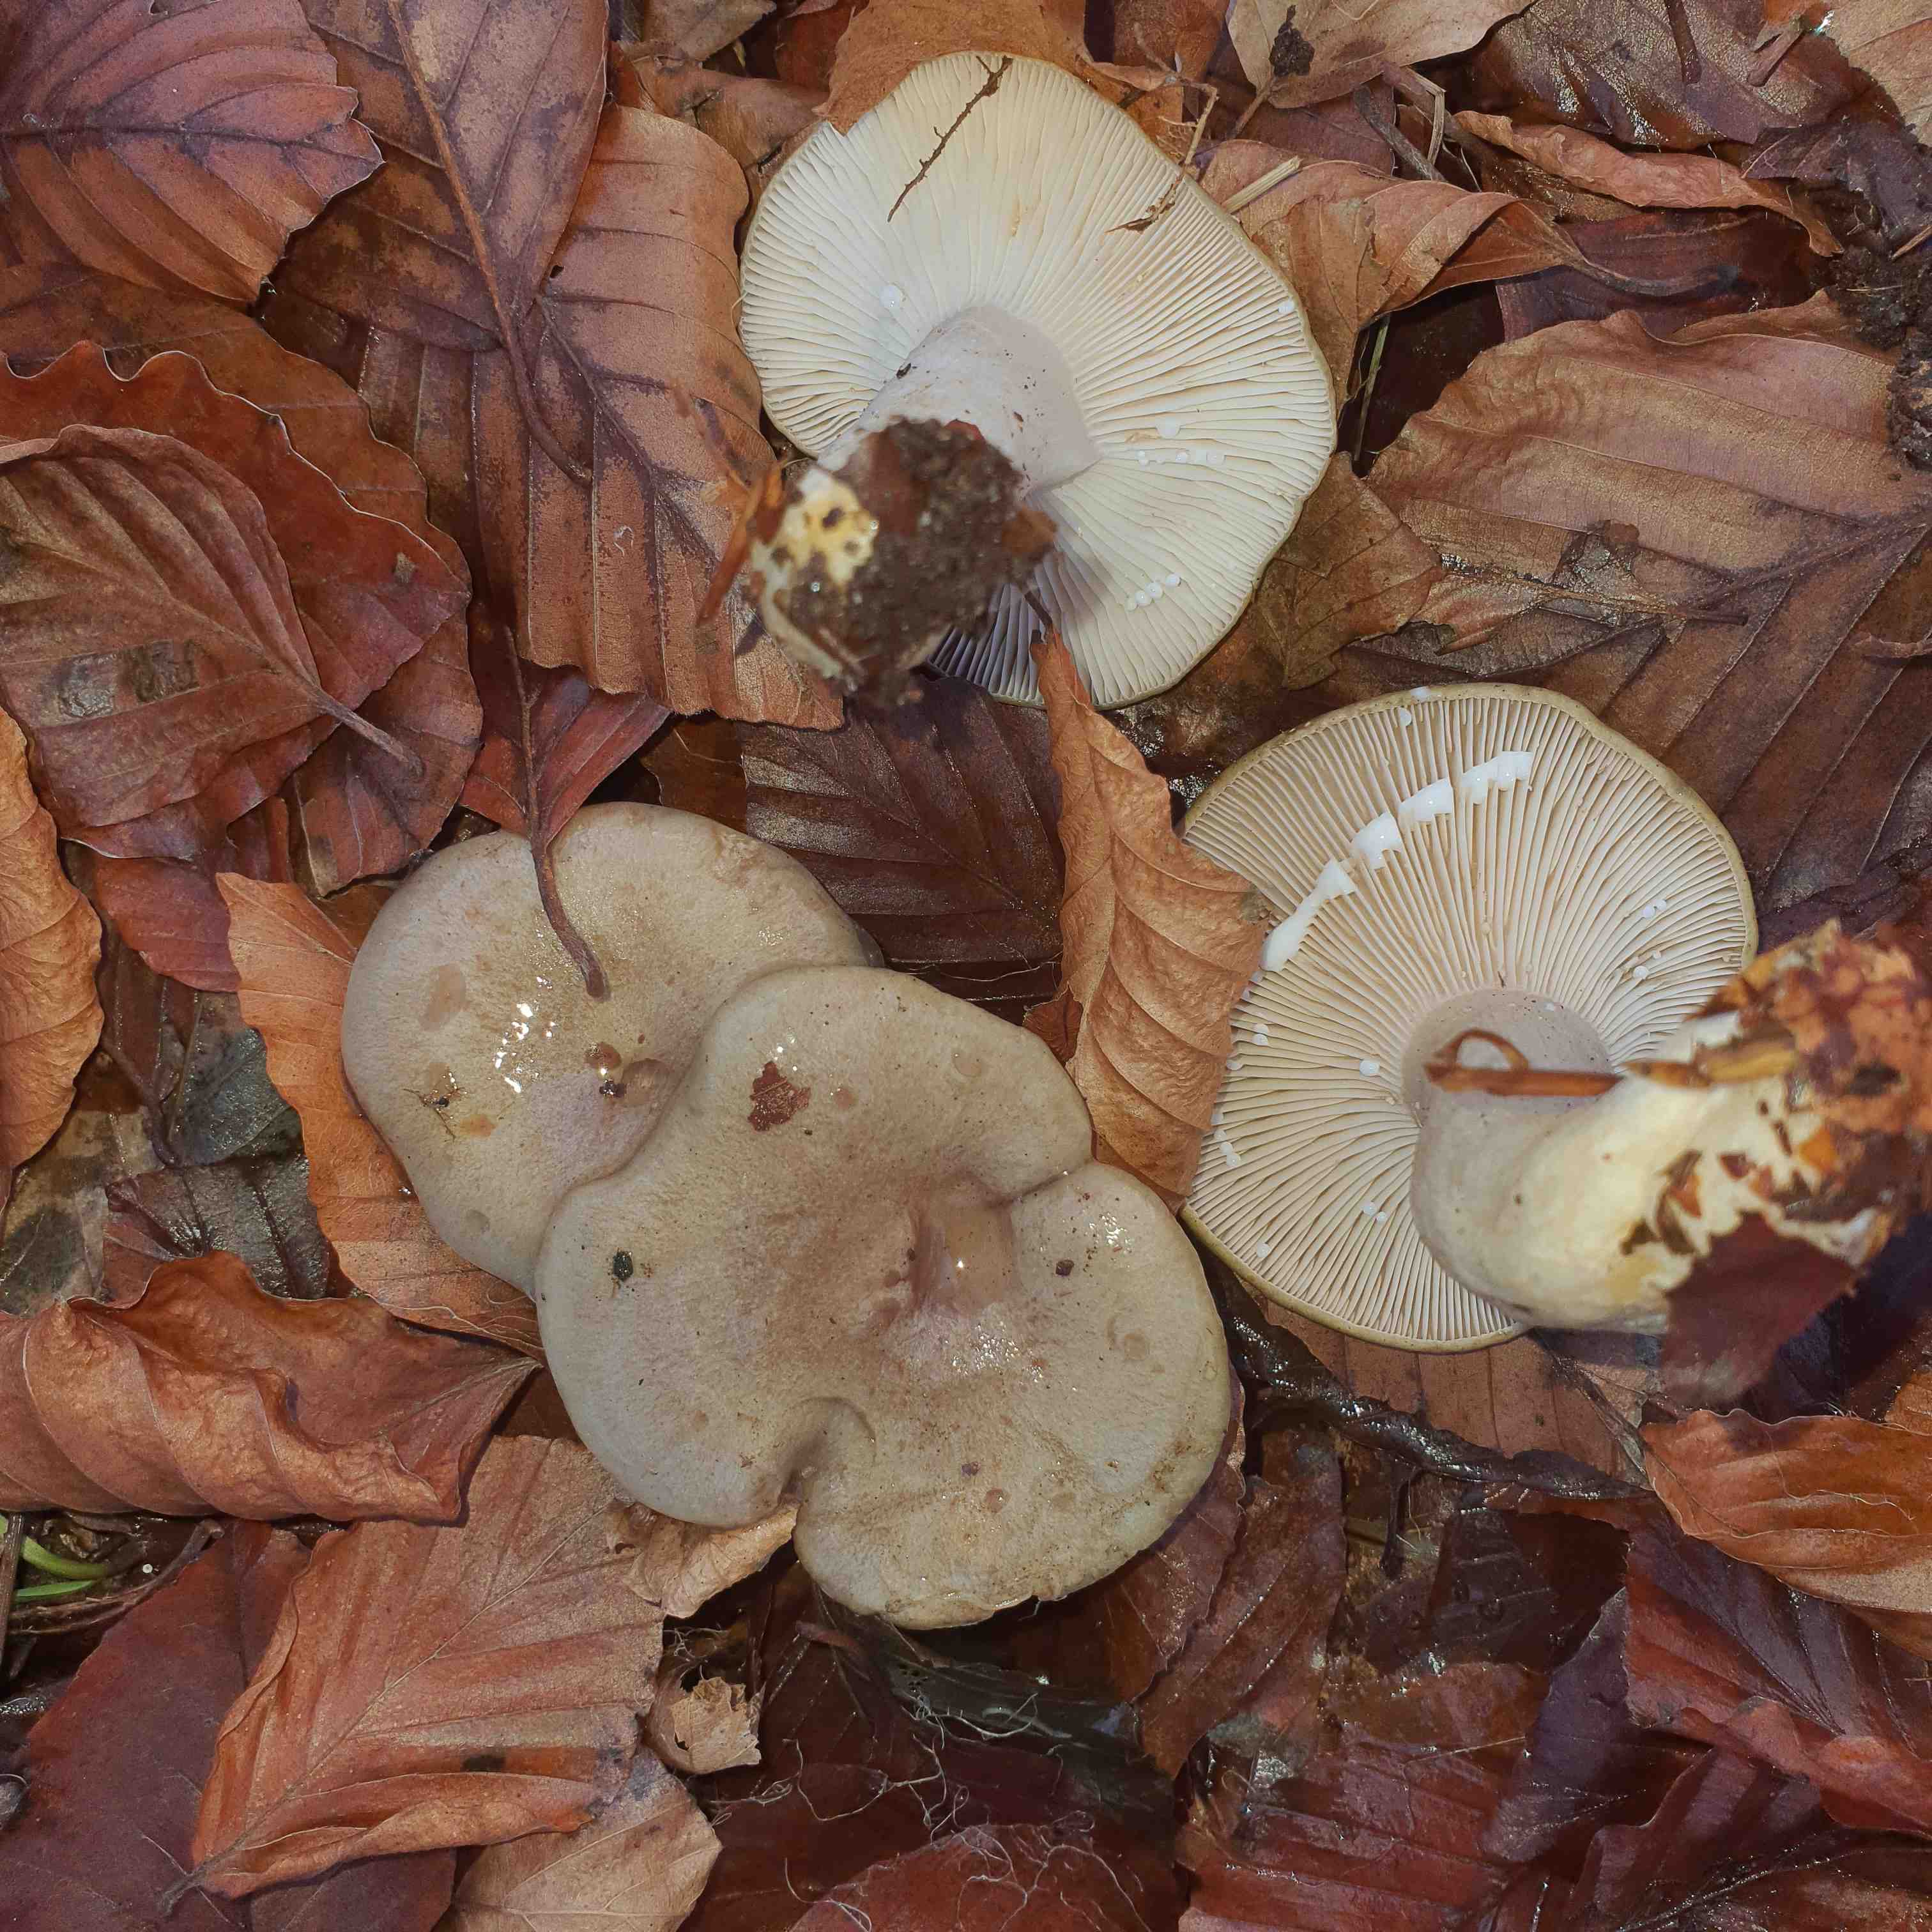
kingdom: Fungi
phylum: Basidiomycota
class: Agaricomycetes
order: Russulales
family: Russulaceae
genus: Lactarius
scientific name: Lactarius blennius
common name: dråbeplettet mælkehat
